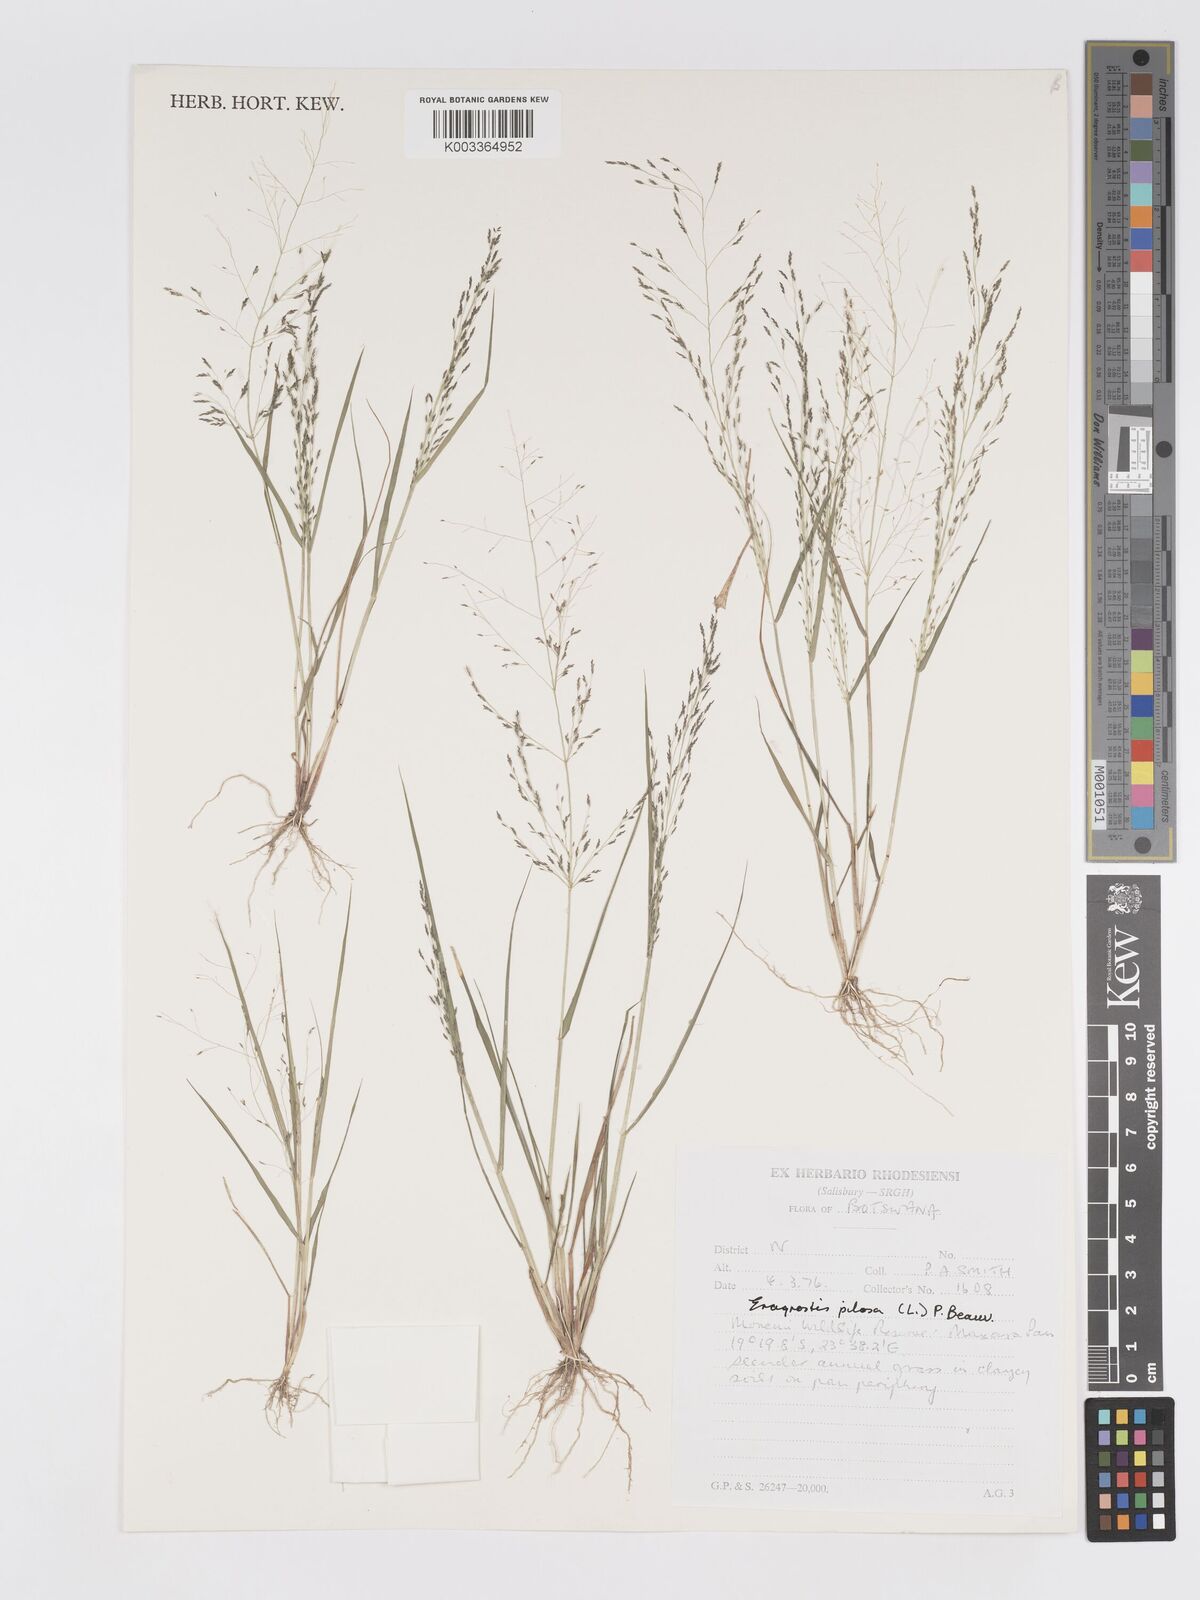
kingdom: Plantae
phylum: Tracheophyta
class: Liliopsida
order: Poales
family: Poaceae
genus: Eragrostis
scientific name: Eragrostis pilosa
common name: Indian lovegrass
